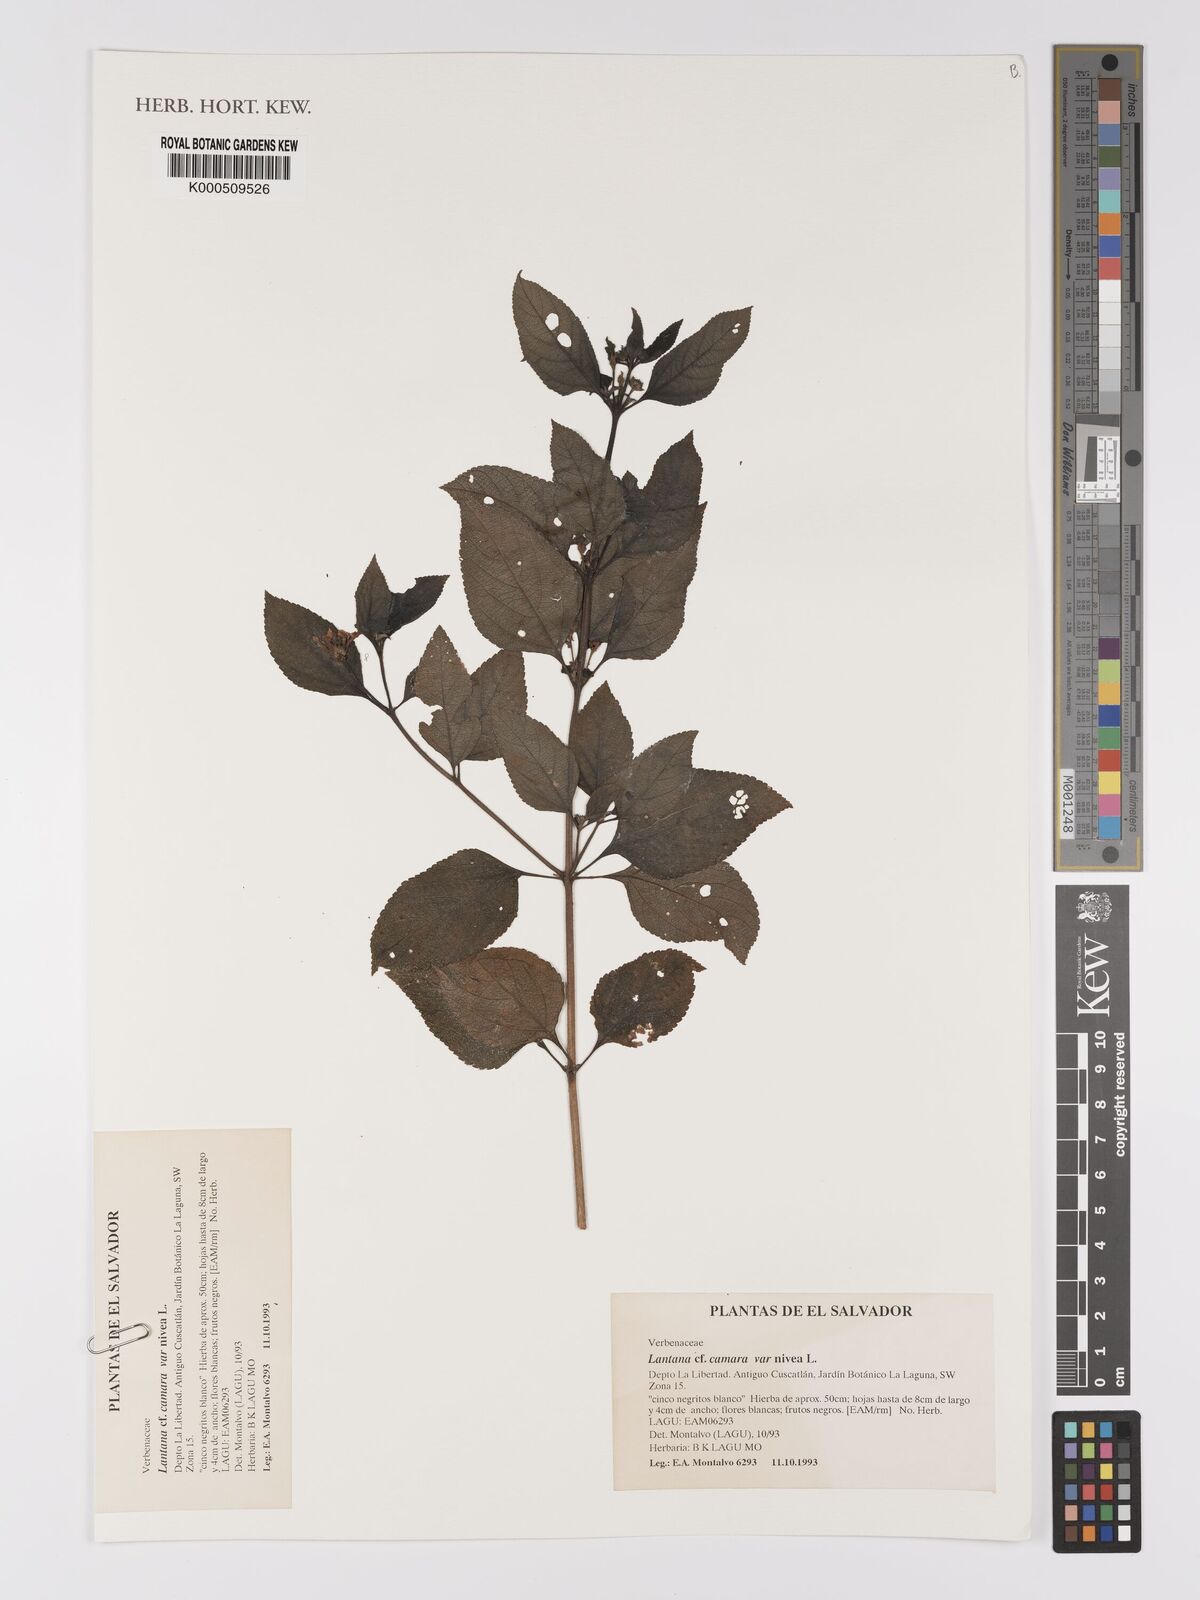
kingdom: Plantae
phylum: Tracheophyta
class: Magnoliopsida
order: Lamiales
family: Verbenaceae
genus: Lantana
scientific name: Lantana camara
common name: Lantana
